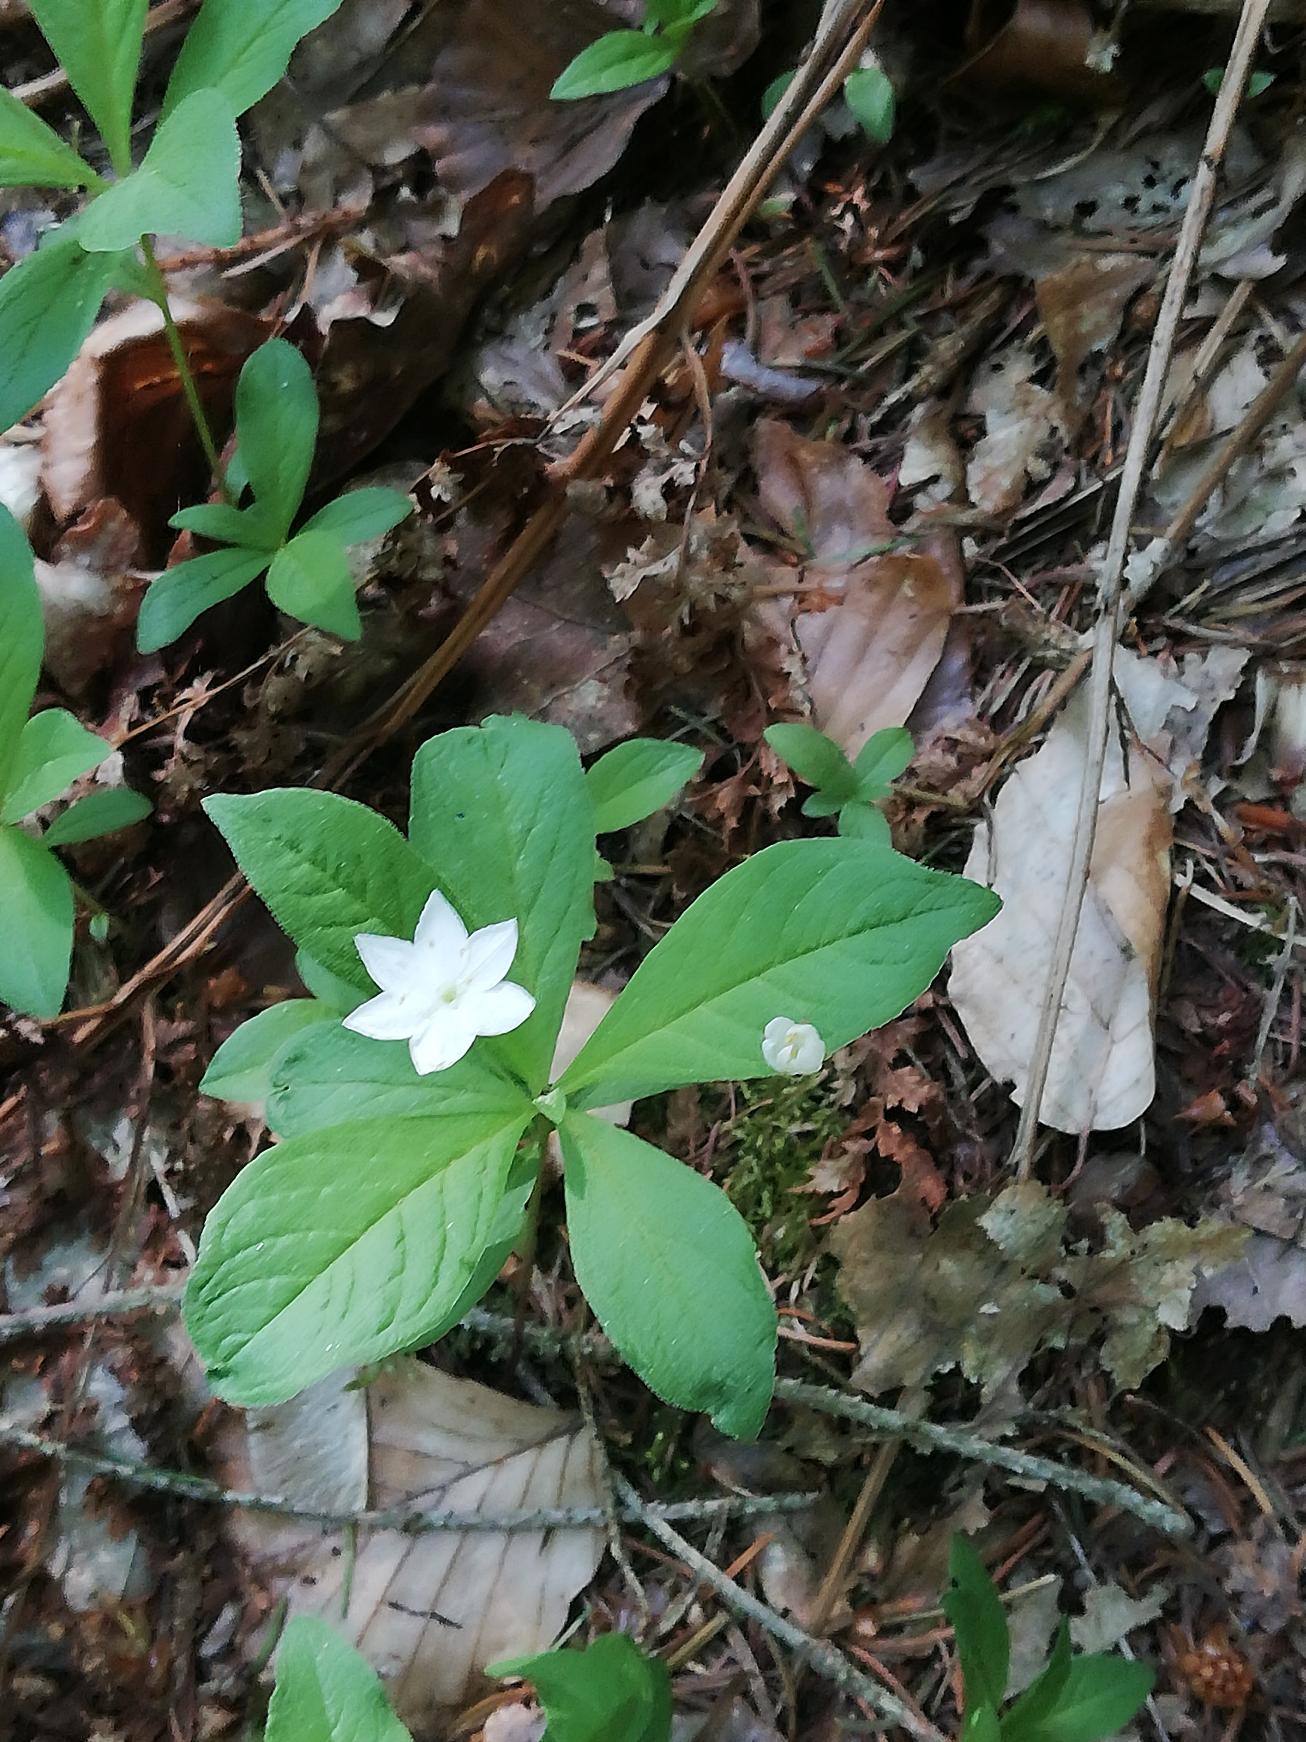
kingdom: Plantae
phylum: Tracheophyta
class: Magnoliopsida
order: Ericales
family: Primulaceae
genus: Lysimachia
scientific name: Lysimachia europaea
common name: Skovstjerne
